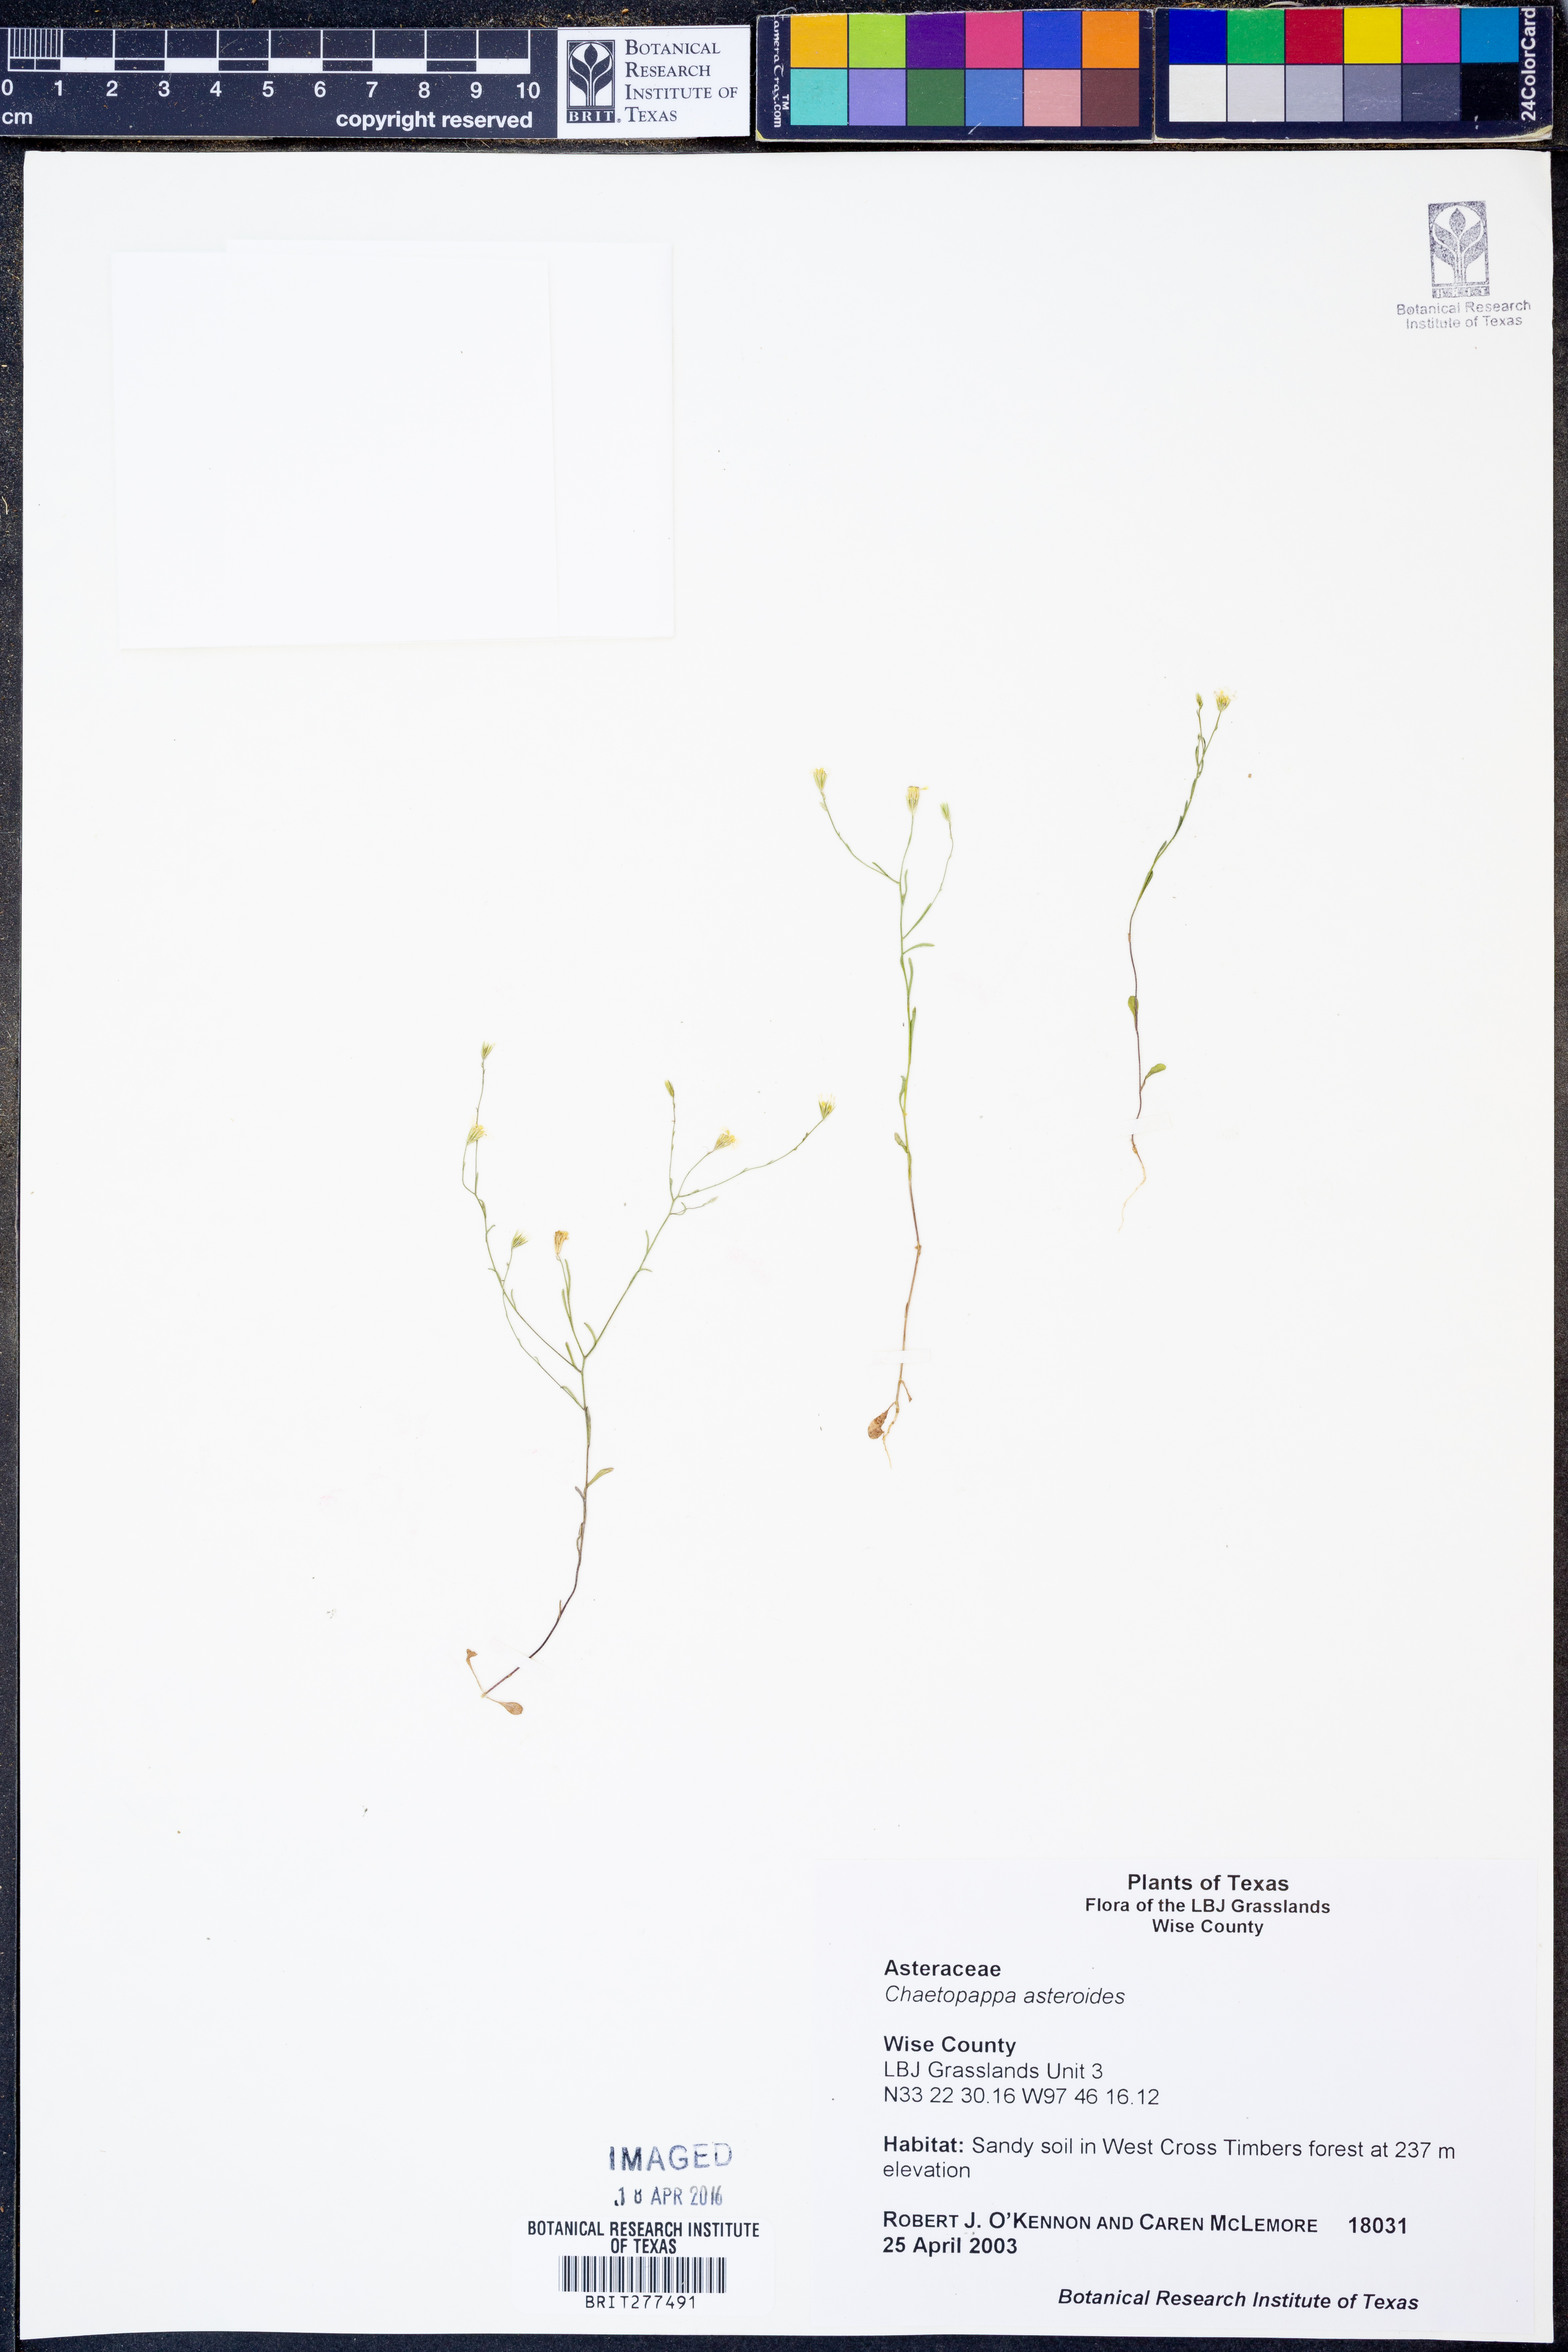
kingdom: Plantae
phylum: Tracheophyta
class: Magnoliopsida
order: Asterales
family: Asteraceae
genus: Chaetopappa
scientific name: Chaetopappa asteroides
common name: Tiny lazy daisy
